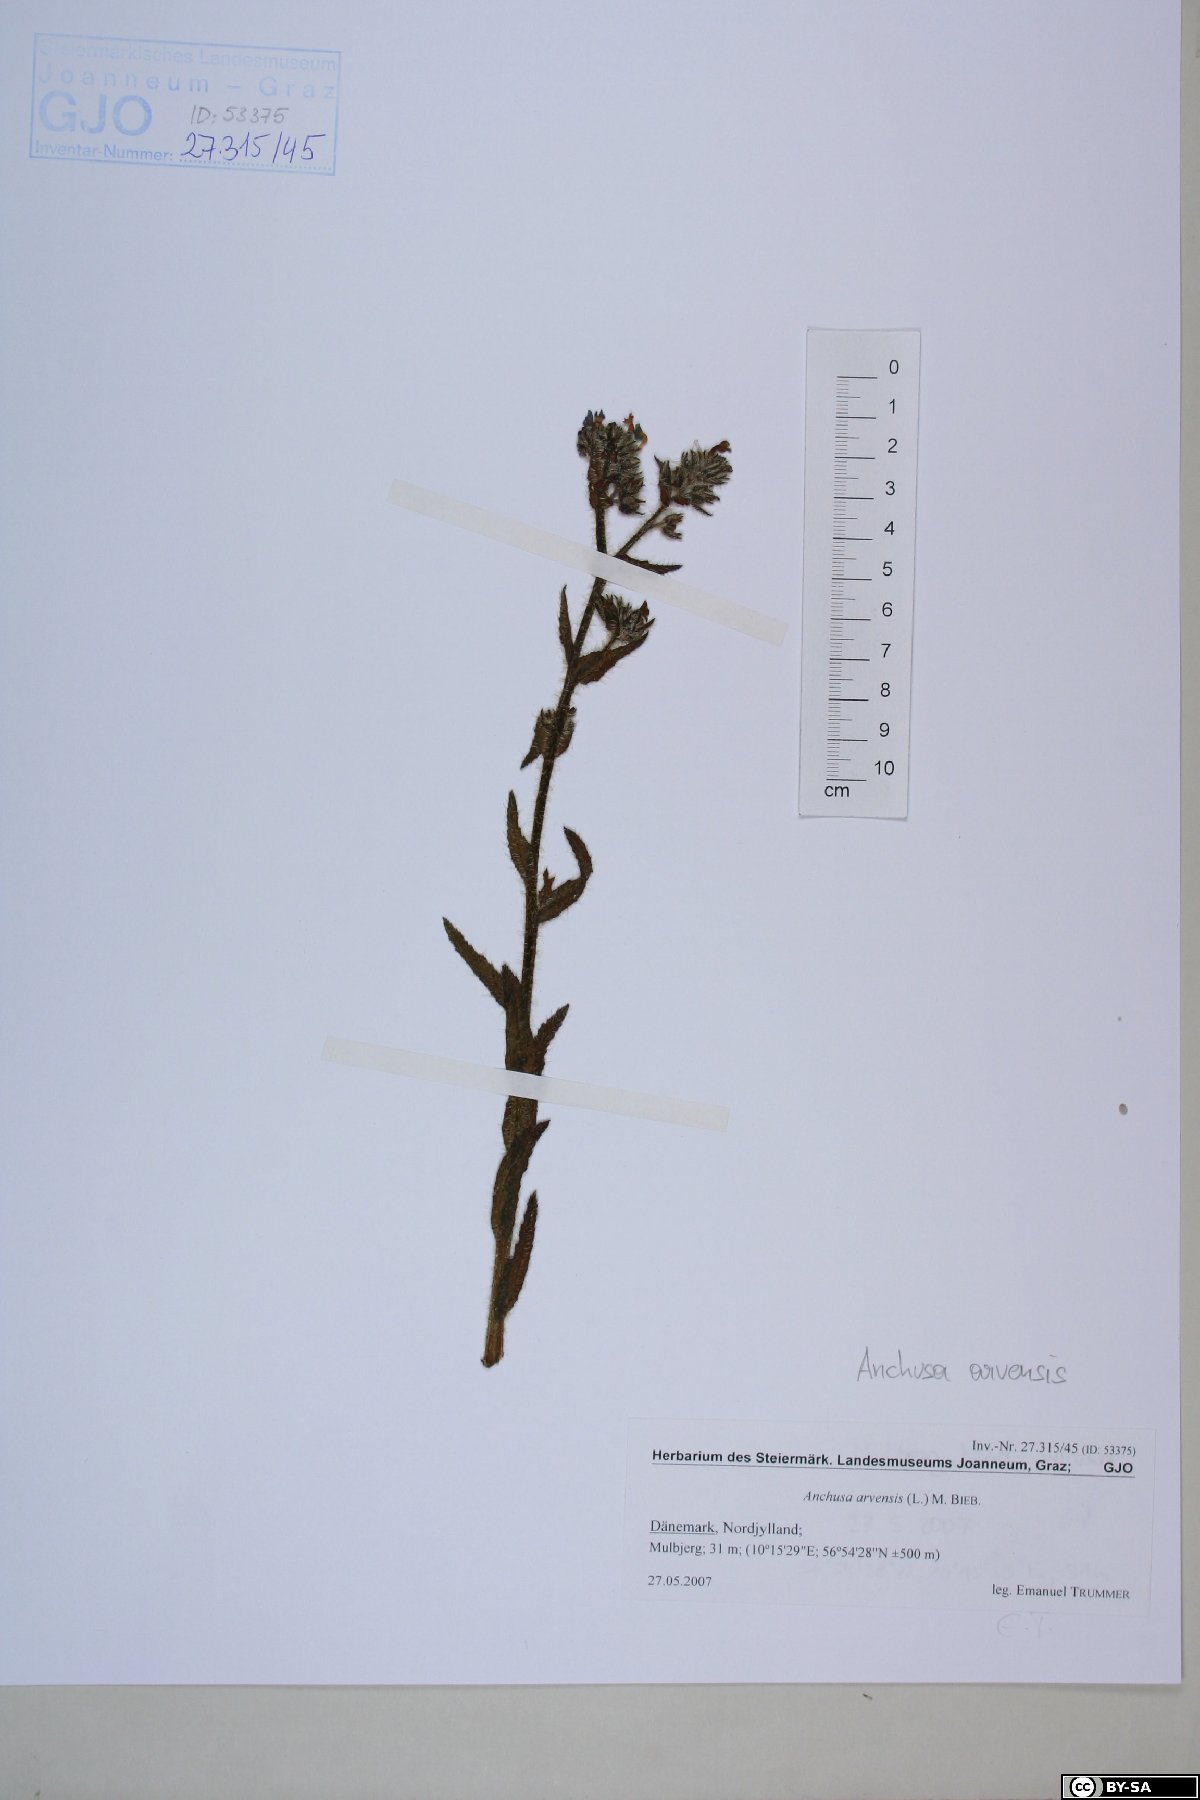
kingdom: Plantae
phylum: Tracheophyta
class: Magnoliopsida
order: Boraginales
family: Boraginaceae
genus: Lycopsis
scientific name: Lycopsis arvensis
